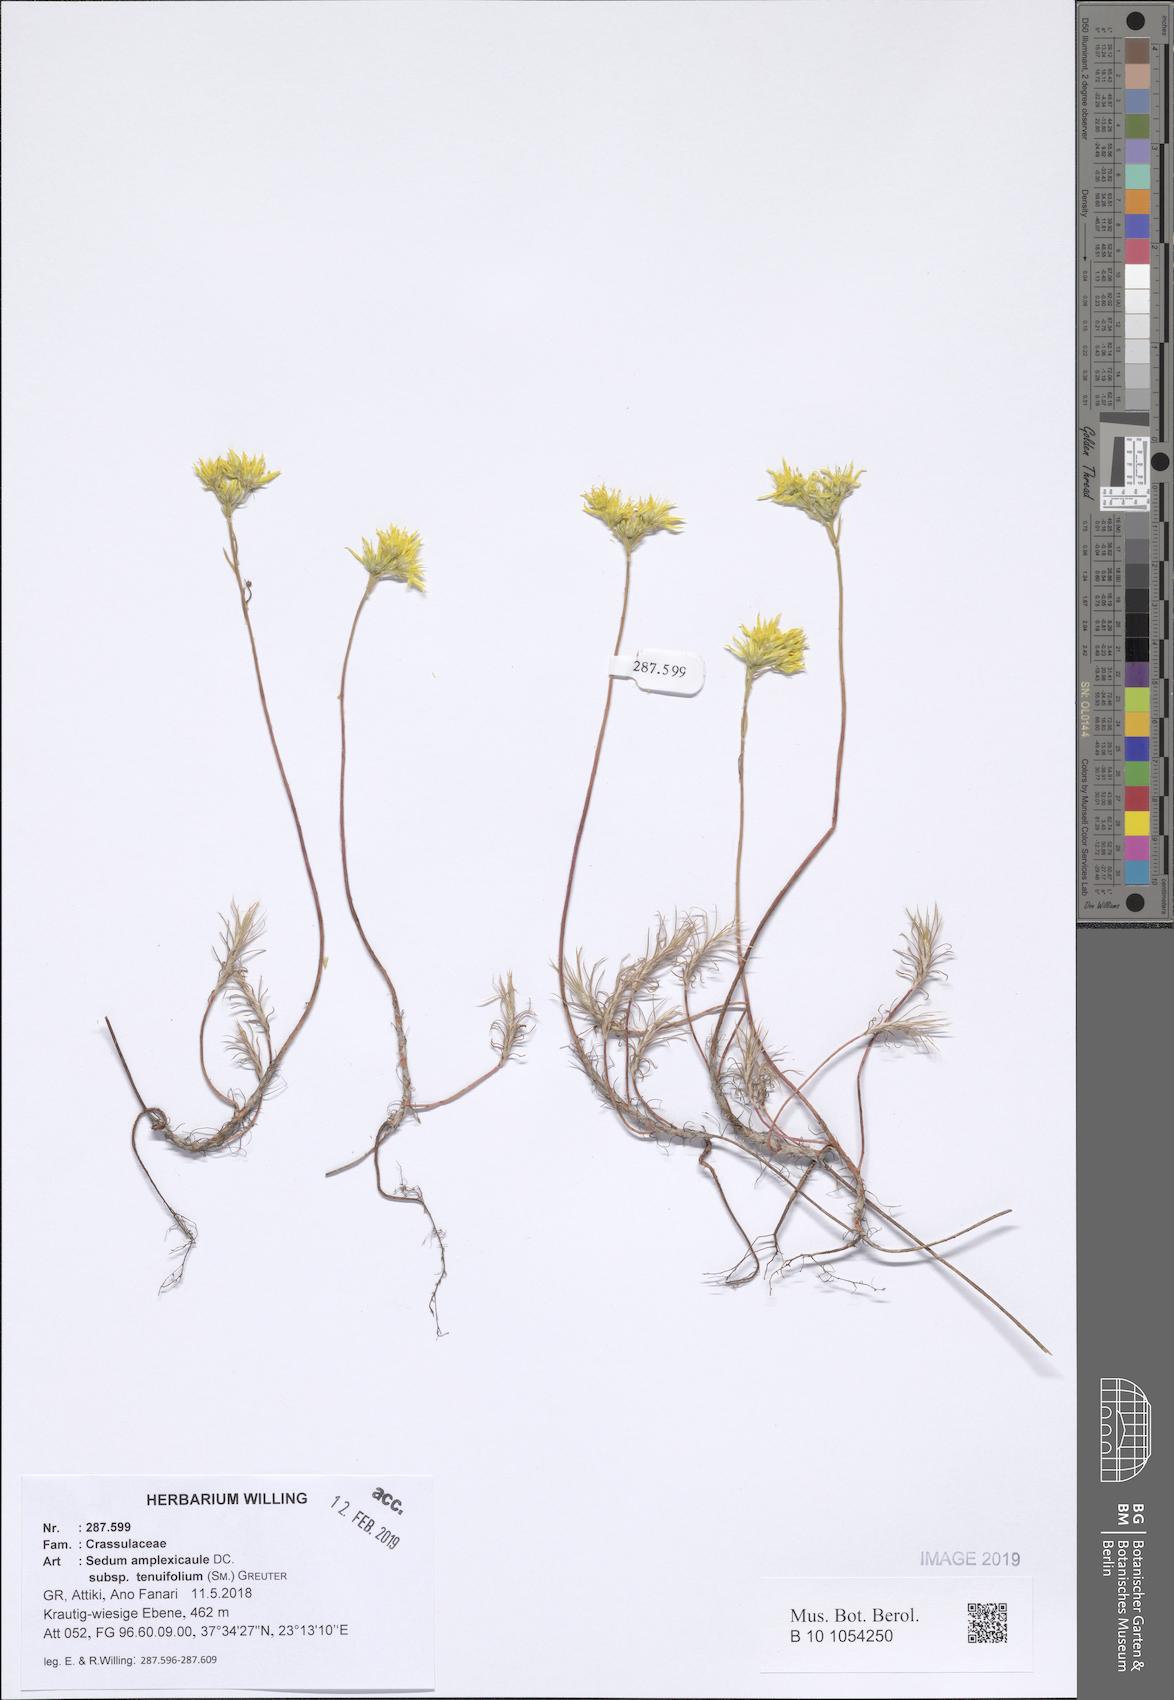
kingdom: Plantae
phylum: Tracheophyta
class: Magnoliopsida
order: Saxifragales
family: Crassulaceae
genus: Petrosedum
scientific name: Petrosedum tenuifolium
